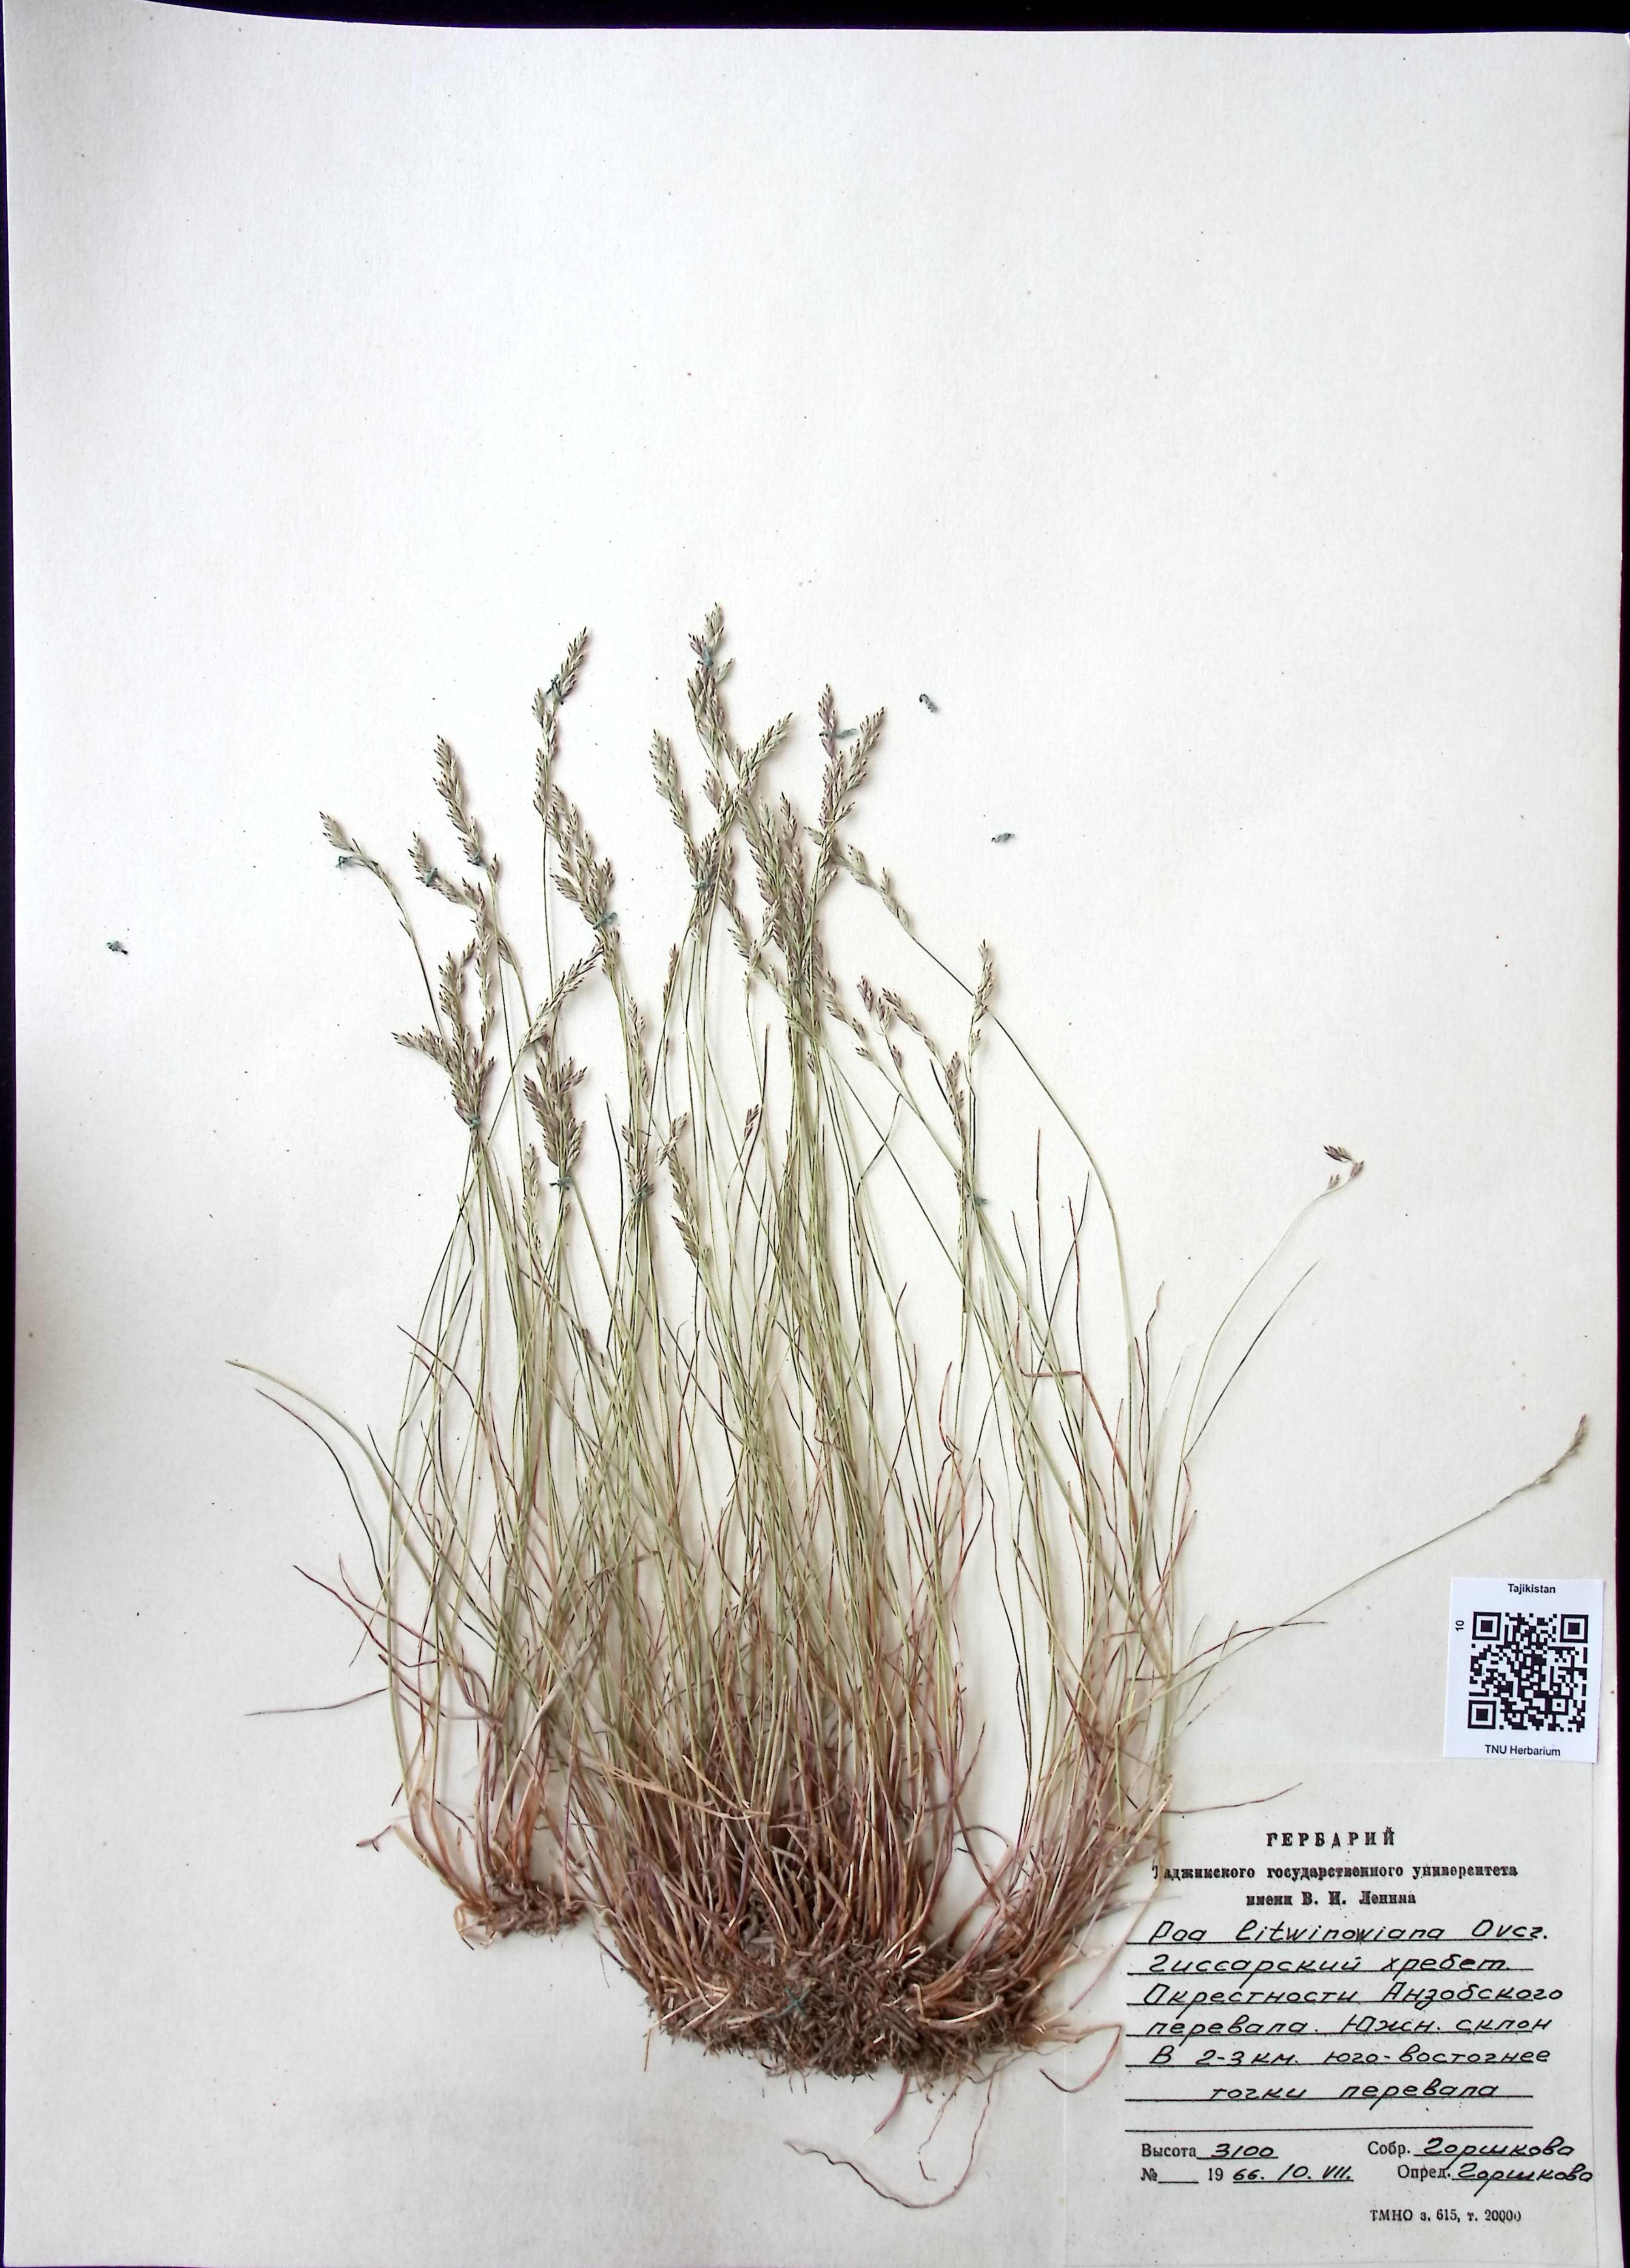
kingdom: Plantae
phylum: Tracheophyta
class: Liliopsida
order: Poales
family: Poaceae
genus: Poa
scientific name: Poa glauca
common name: Glaucous bluegrass
